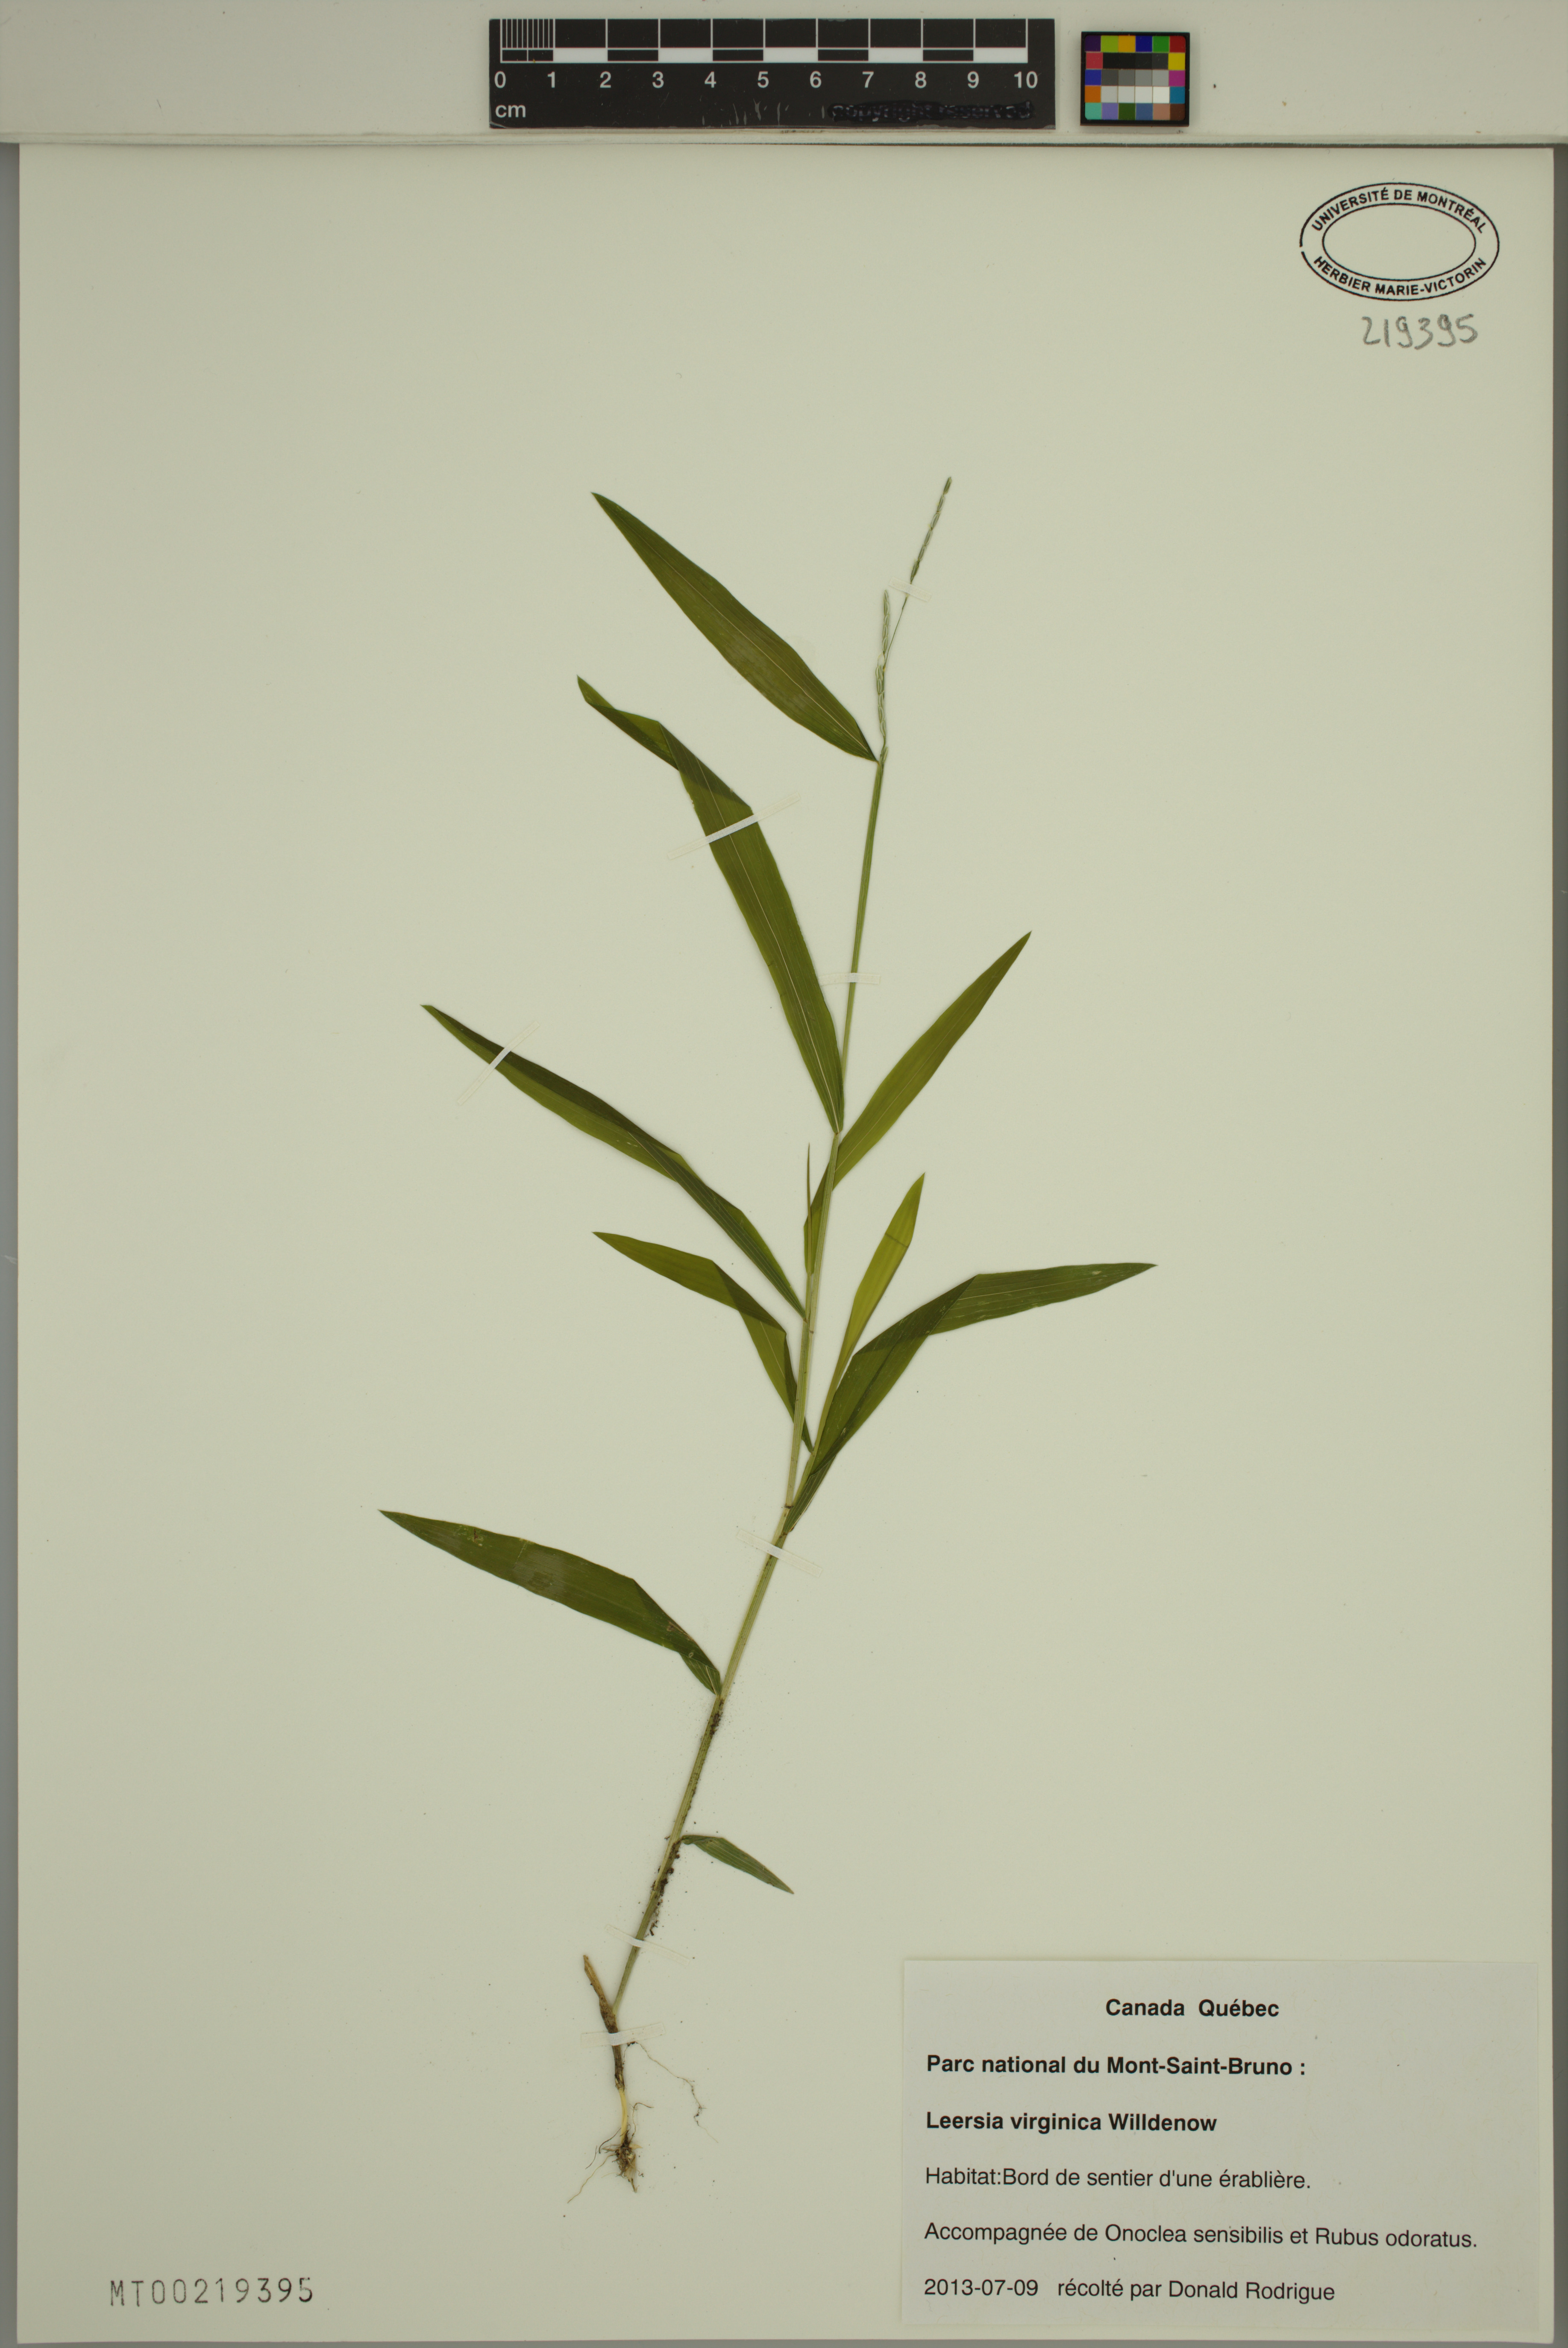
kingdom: Plantae
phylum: Tracheophyta
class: Liliopsida
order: Poales
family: Poaceae
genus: Leersia
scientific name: Leersia virginica
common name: White cutgrass
